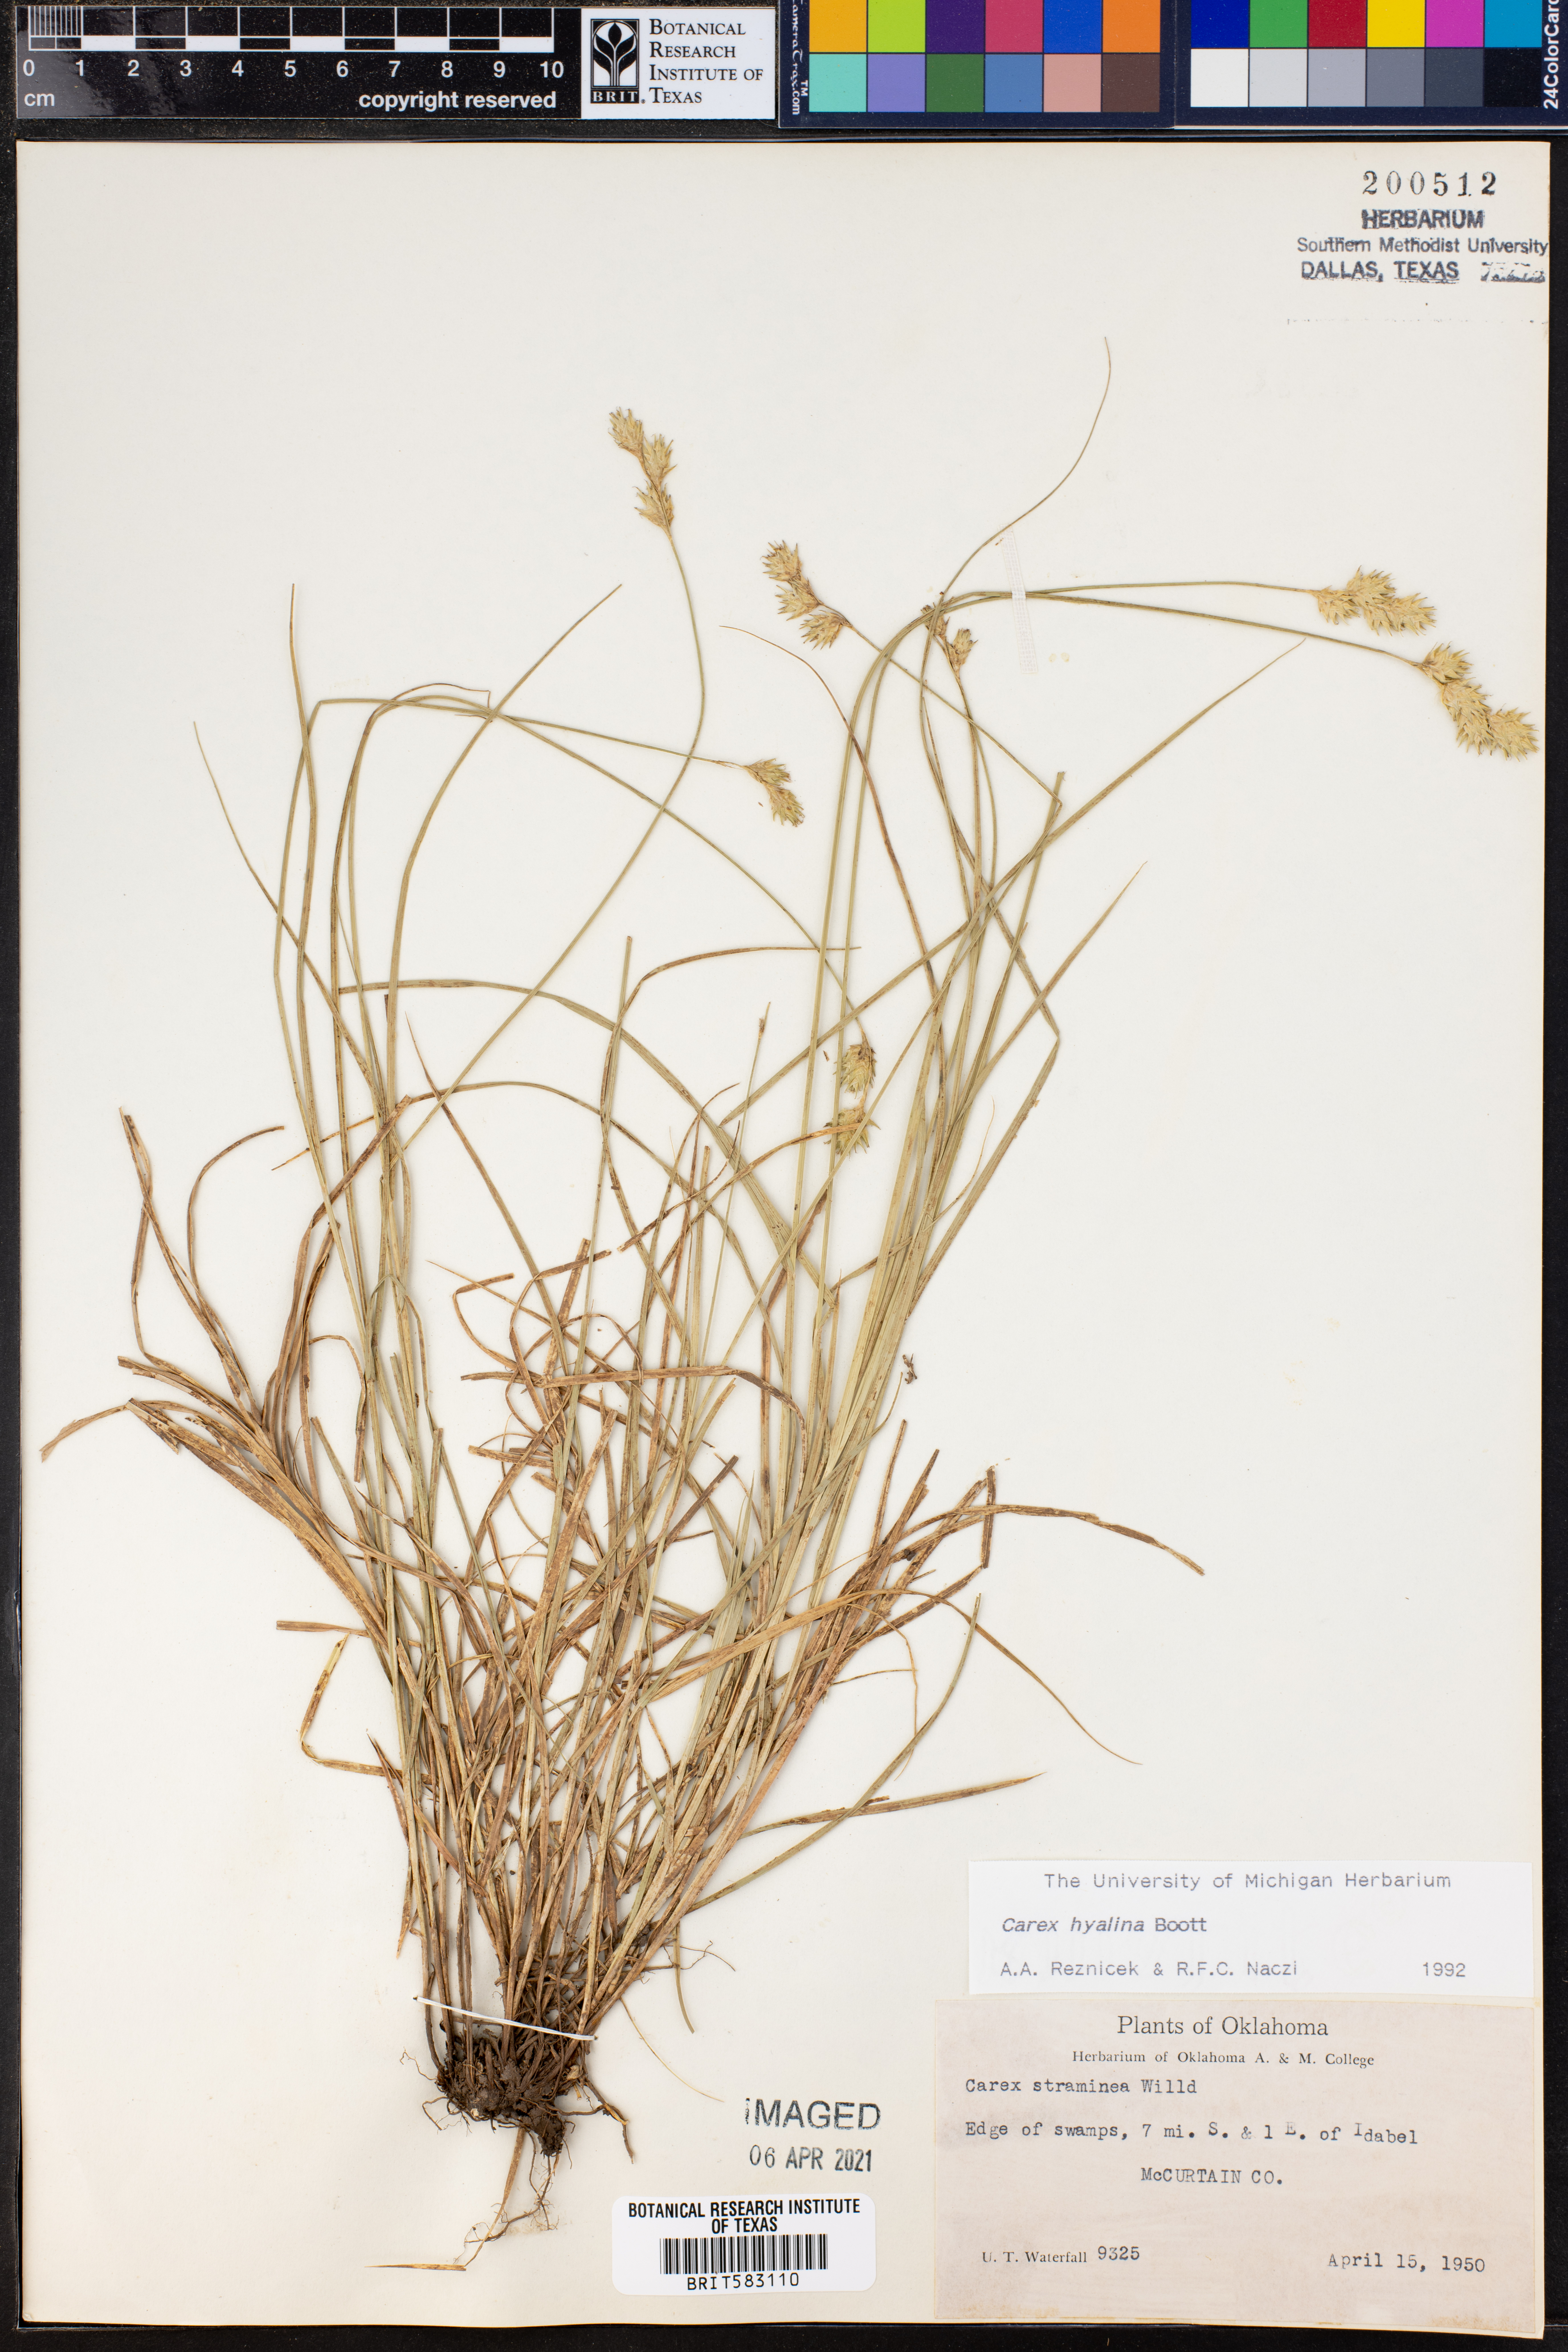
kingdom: Plantae
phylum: Tracheophyta
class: Liliopsida
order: Poales
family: Cyperaceae
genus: Carex
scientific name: Carex hyalina
